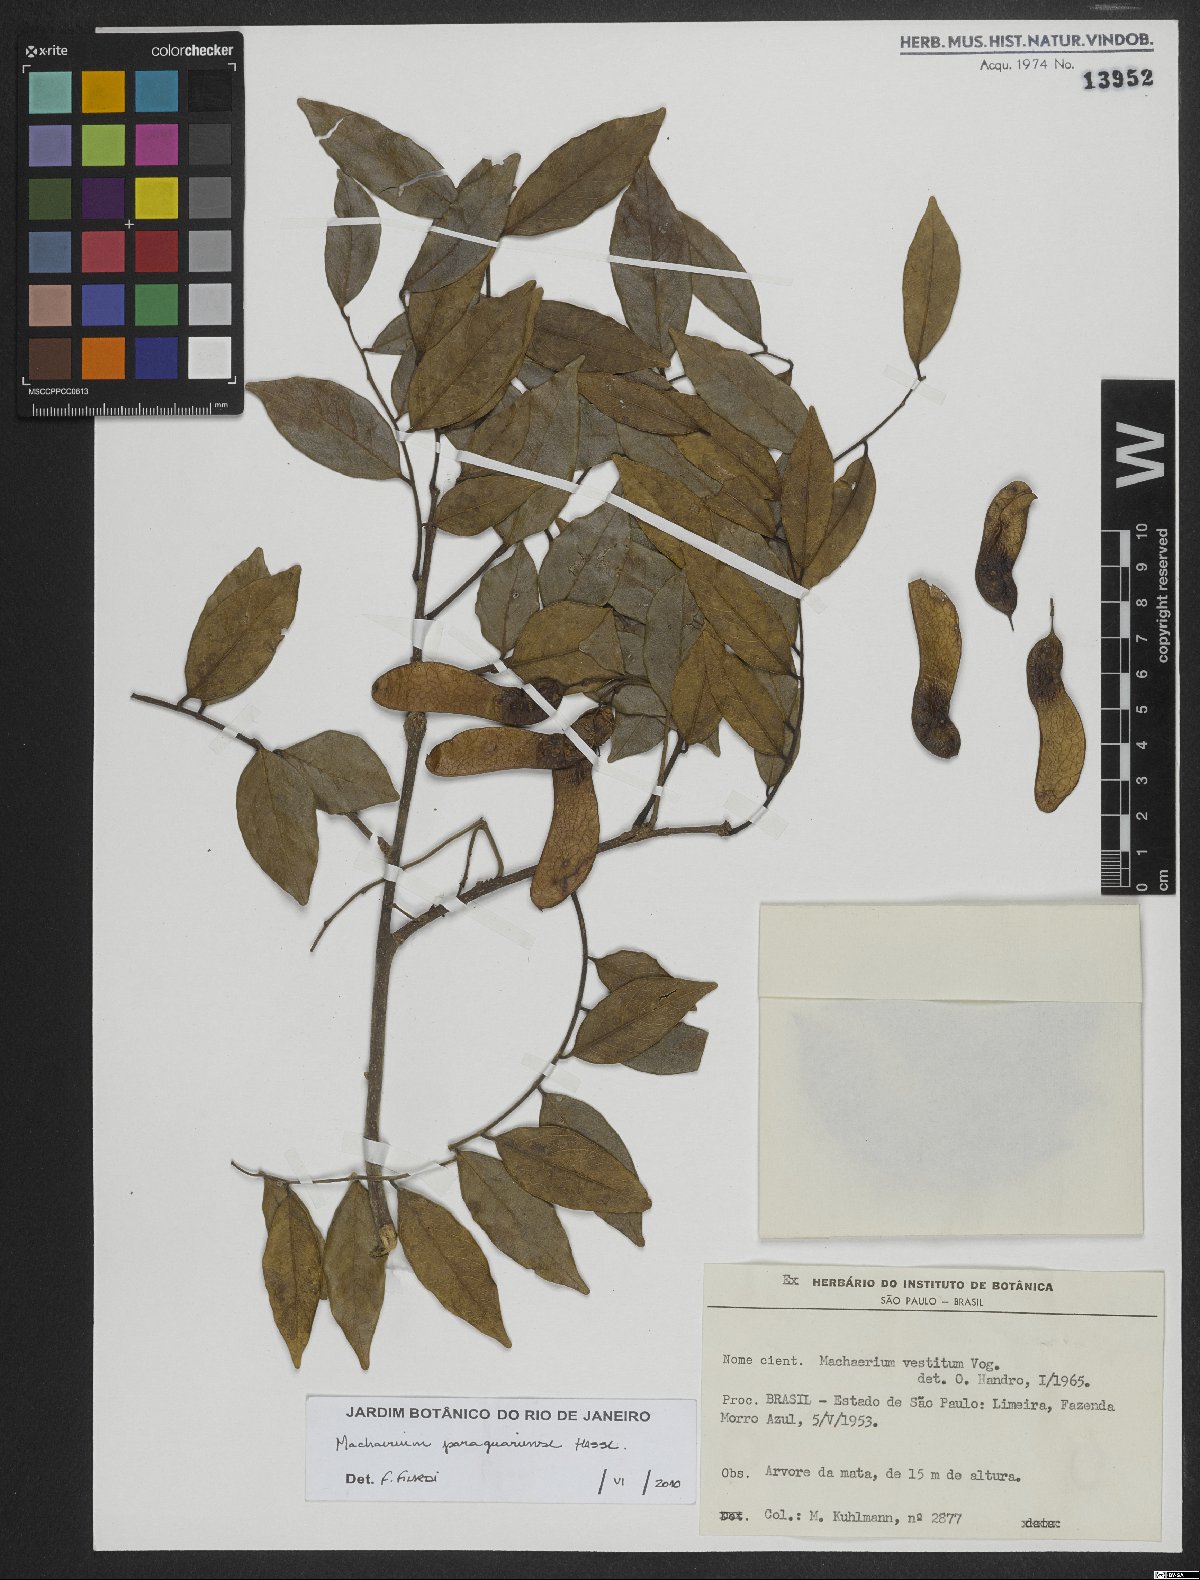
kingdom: Plantae
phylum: Tracheophyta
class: Magnoliopsida
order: Fabales
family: Fabaceae
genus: Machaerium
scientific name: Machaerium oblongifolium
